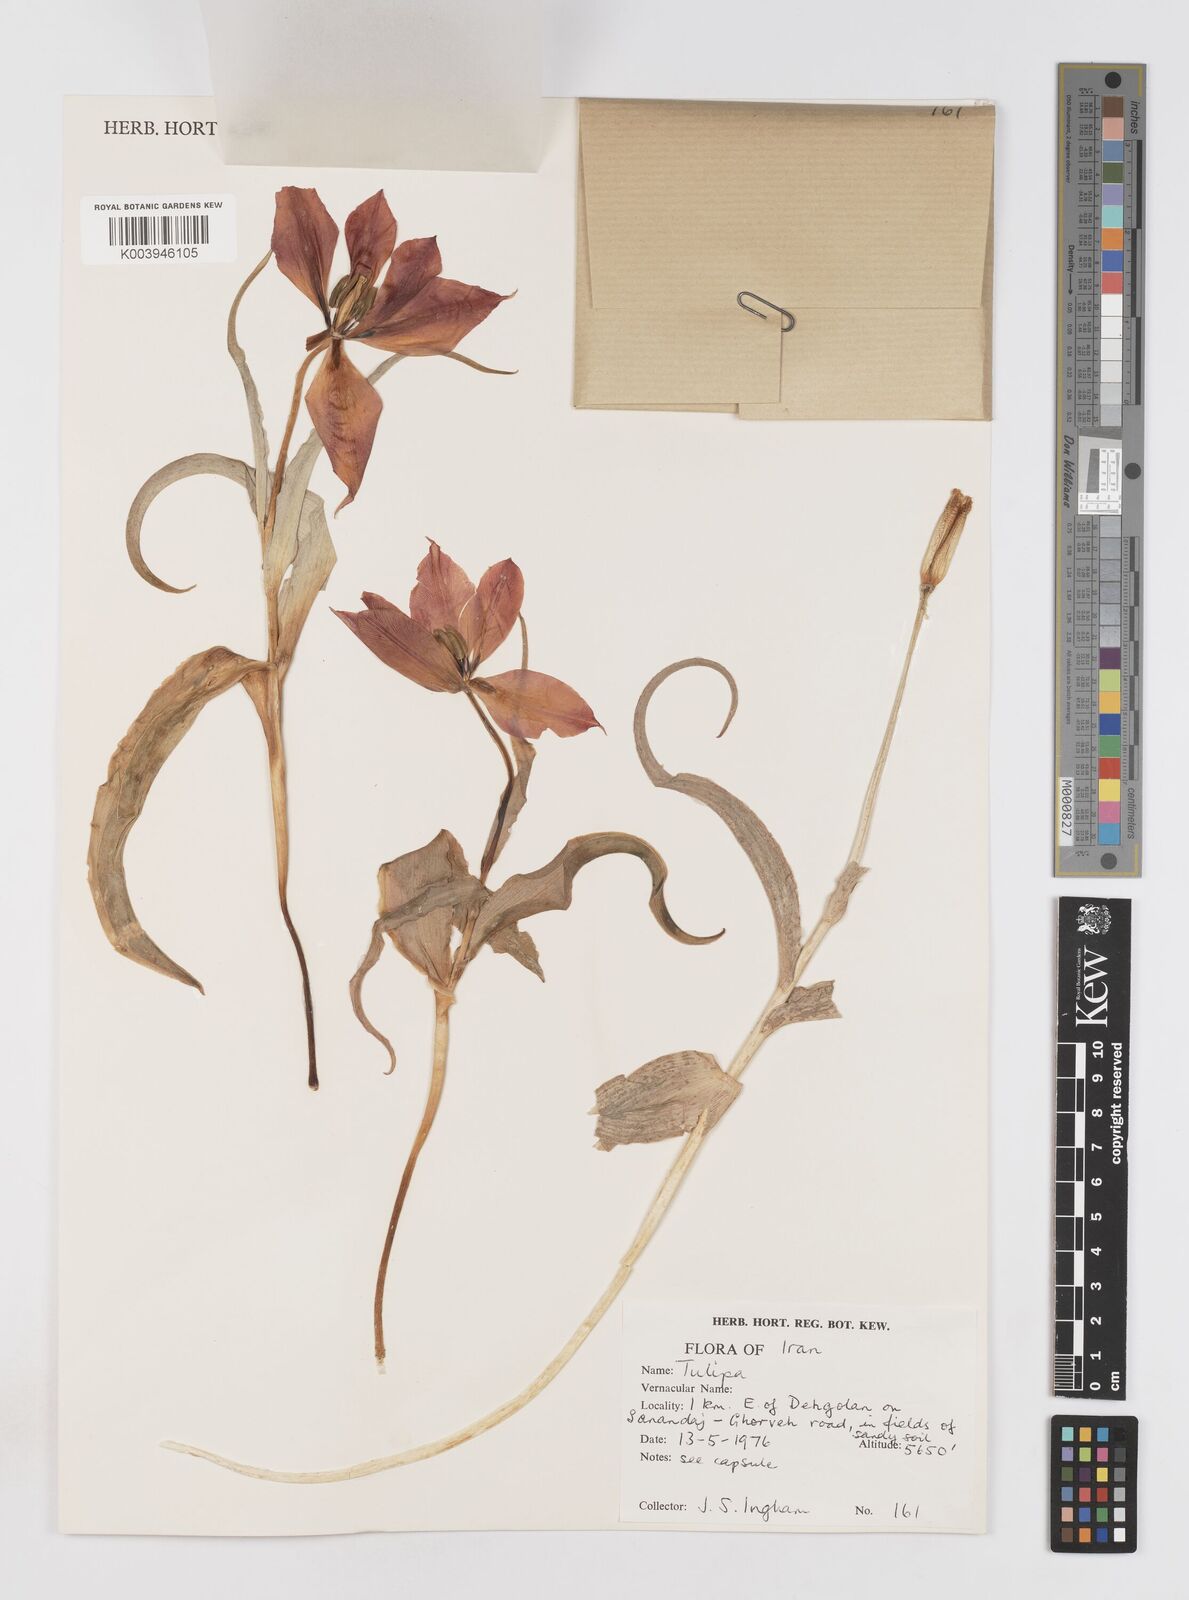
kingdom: Plantae
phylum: Tracheophyta
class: Liliopsida
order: Liliales
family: Liliaceae
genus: Tulipa
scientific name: Tulipa systola
